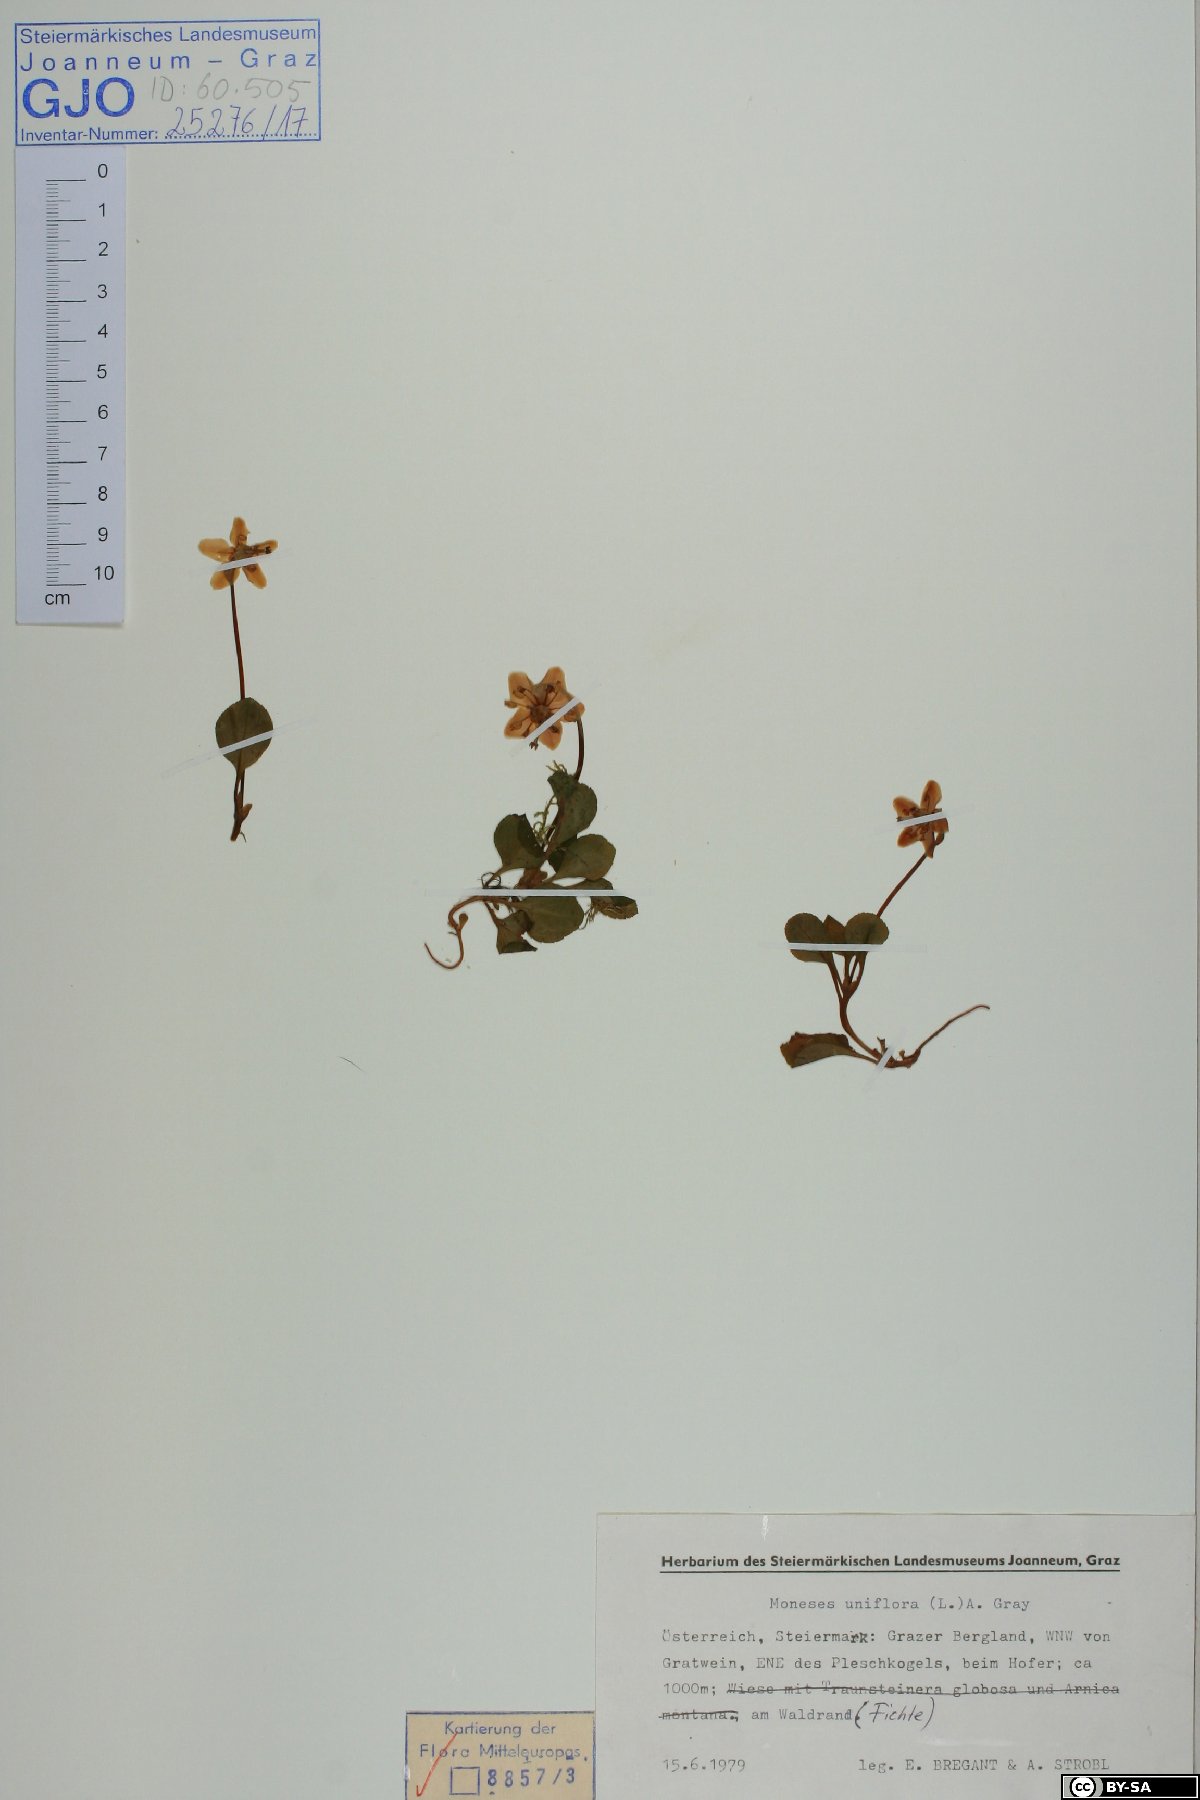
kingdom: Plantae
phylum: Tracheophyta
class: Magnoliopsida
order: Ericales
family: Ericaceae
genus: Moneses
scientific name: Moneses uniflora
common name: One-flowered wintergreen
